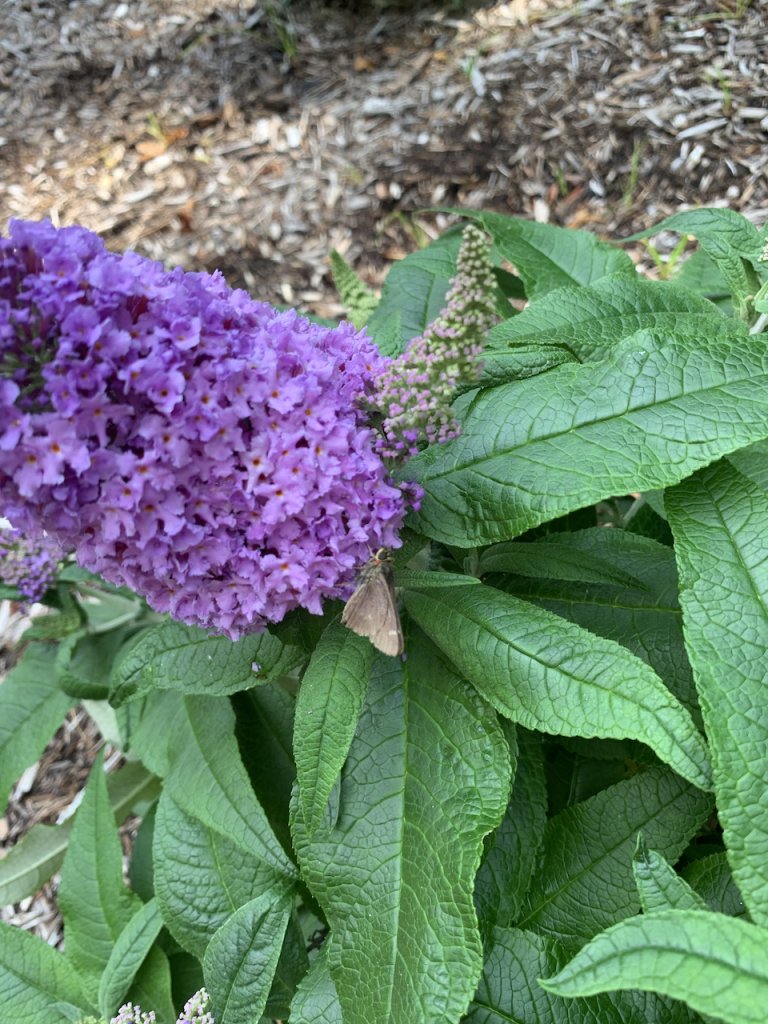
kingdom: Animalia
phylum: Arthropoda
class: Insecta
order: Lepidoptera
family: Hesperiidae
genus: Vernia
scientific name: Vernia verna
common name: Little Glassywing
